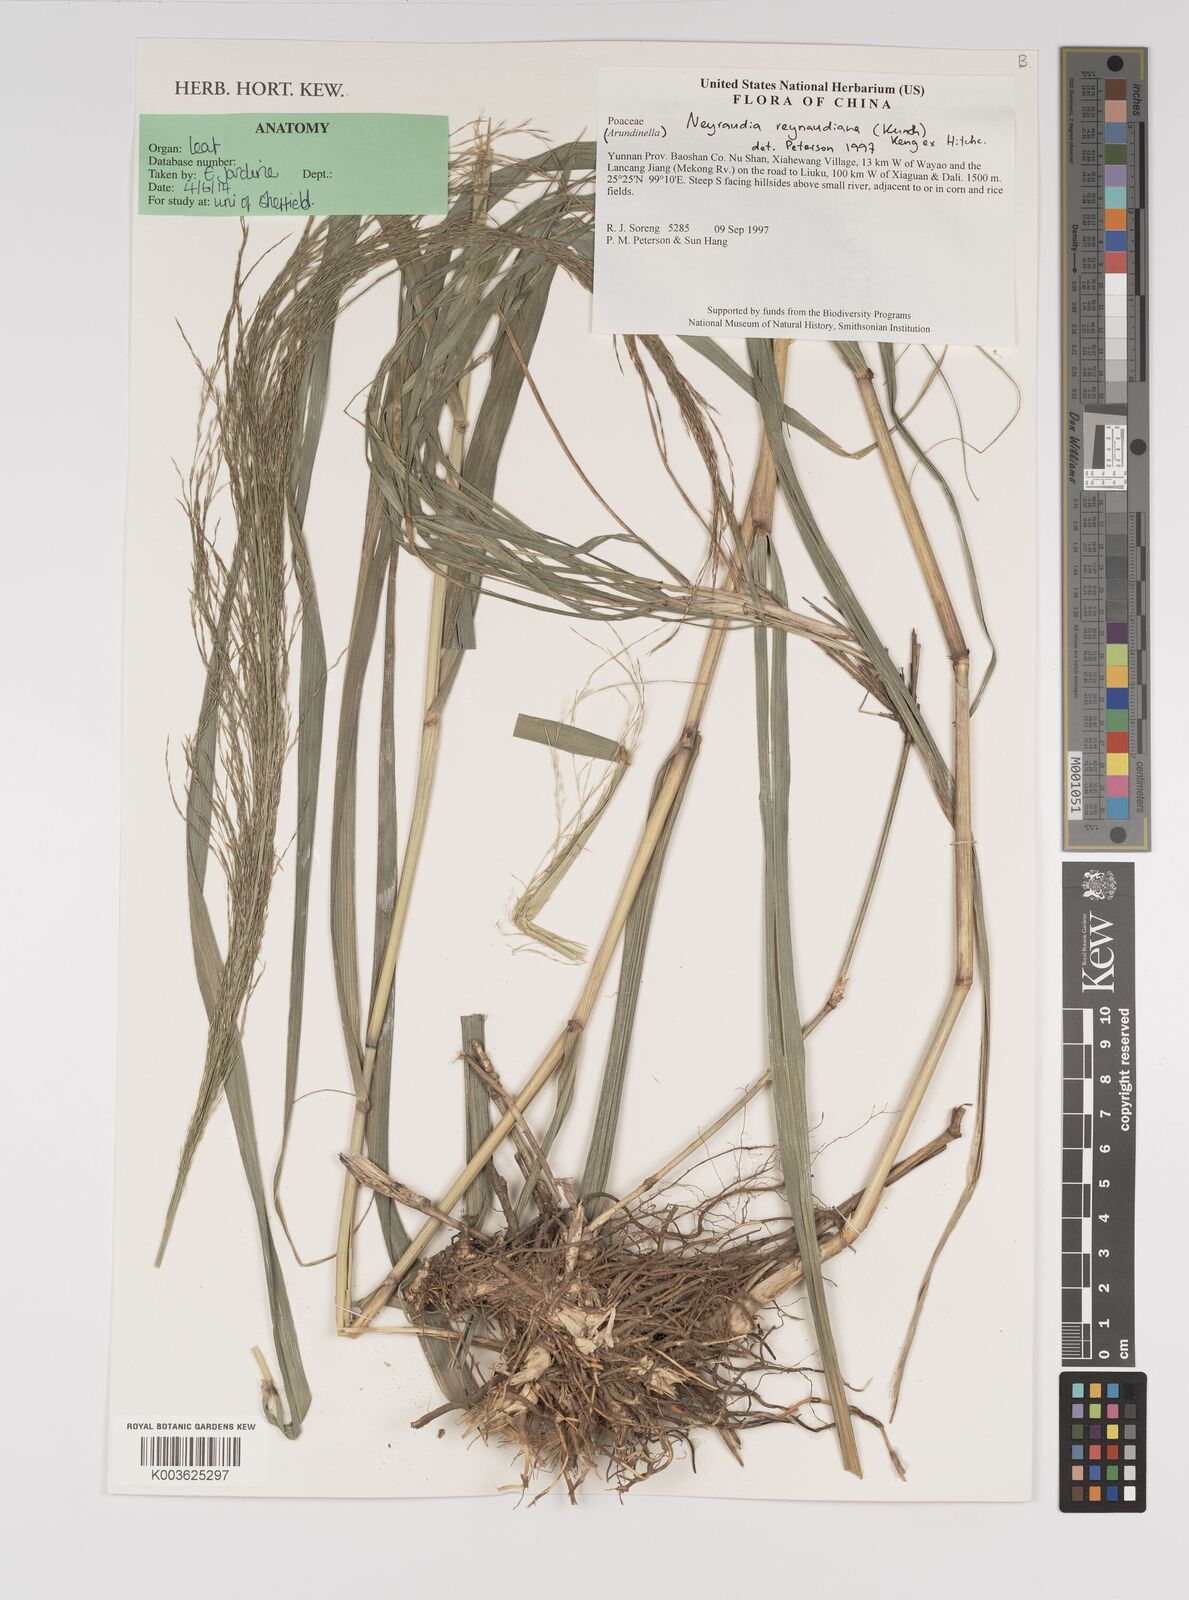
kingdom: Plantae
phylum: Tracheophyta
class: Liliopsida
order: Poales
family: Poaceae
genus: Neyraudia
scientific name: Neyraudia reynaudiana
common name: Silkreed
